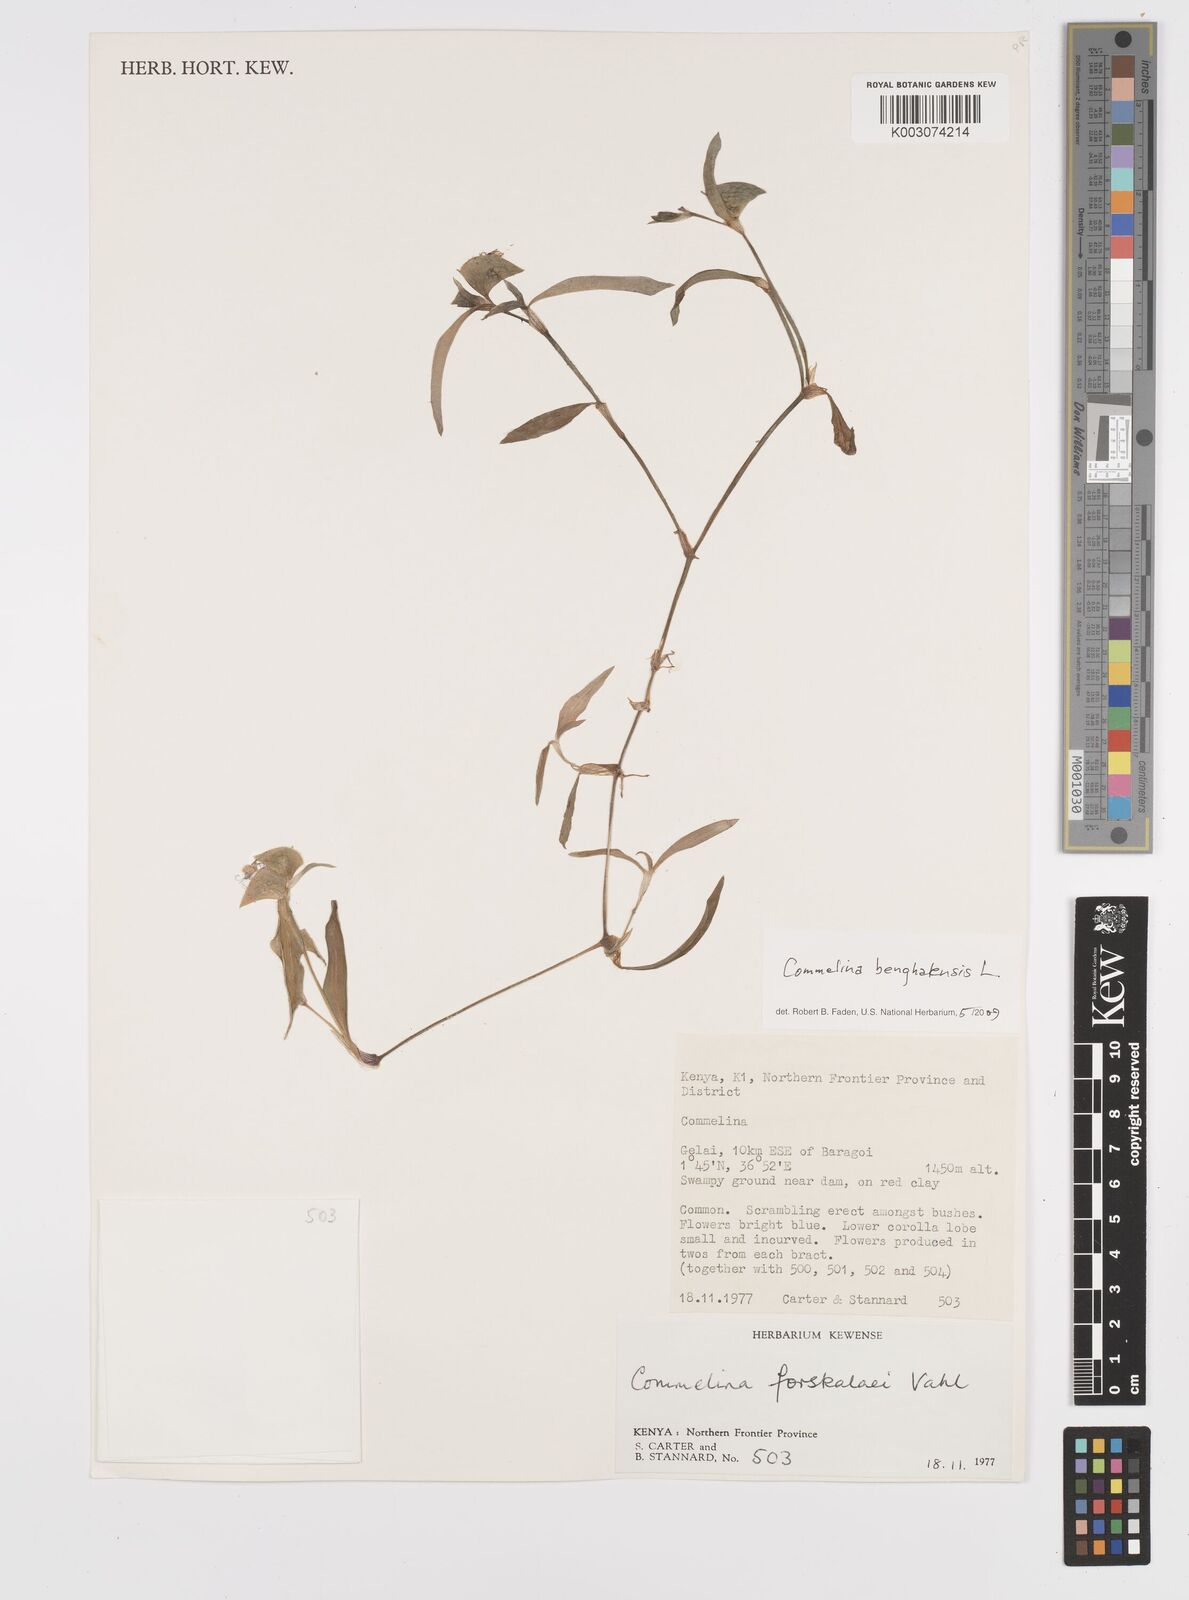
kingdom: Plantae
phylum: Tracheophyta
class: Liliopsida
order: Commelinales
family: Commelinaceae
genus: Commelina
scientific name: Commelina benghalensis
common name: Jio
